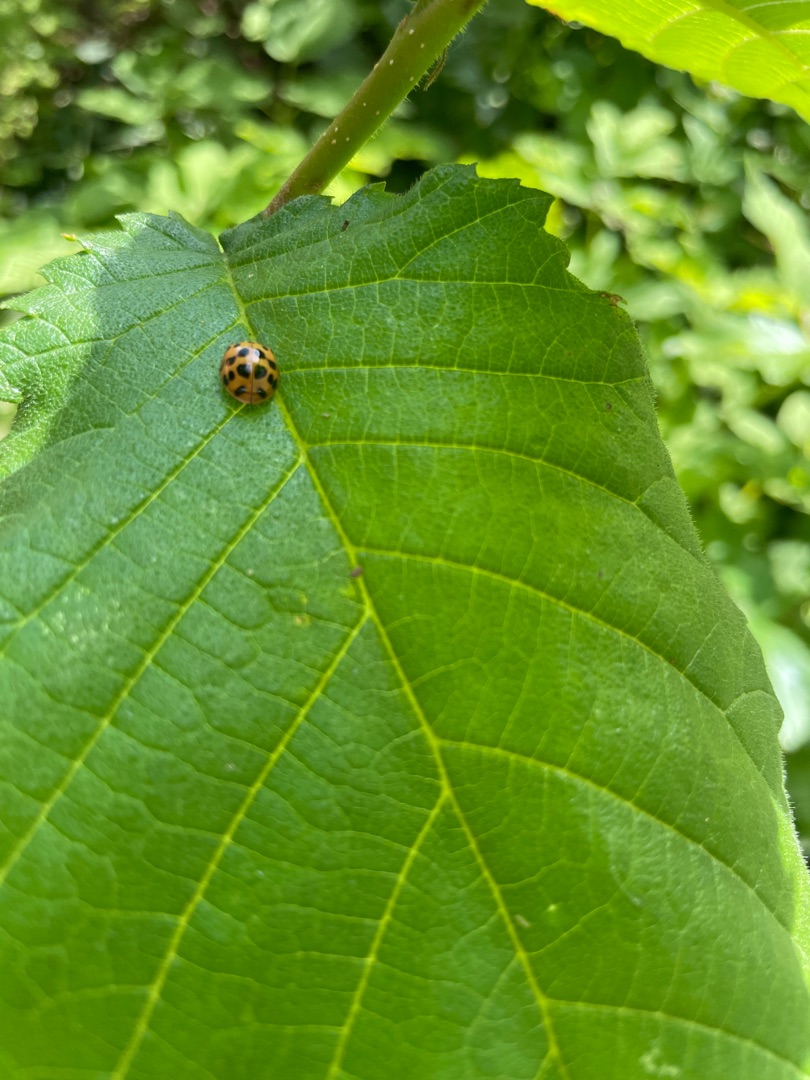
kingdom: Animalia
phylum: Arthropoda
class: Insecta
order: Coleoptera
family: Coccinellidae
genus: Harmonia
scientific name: Harmonia axyridis
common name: Harlekinmariehøne
